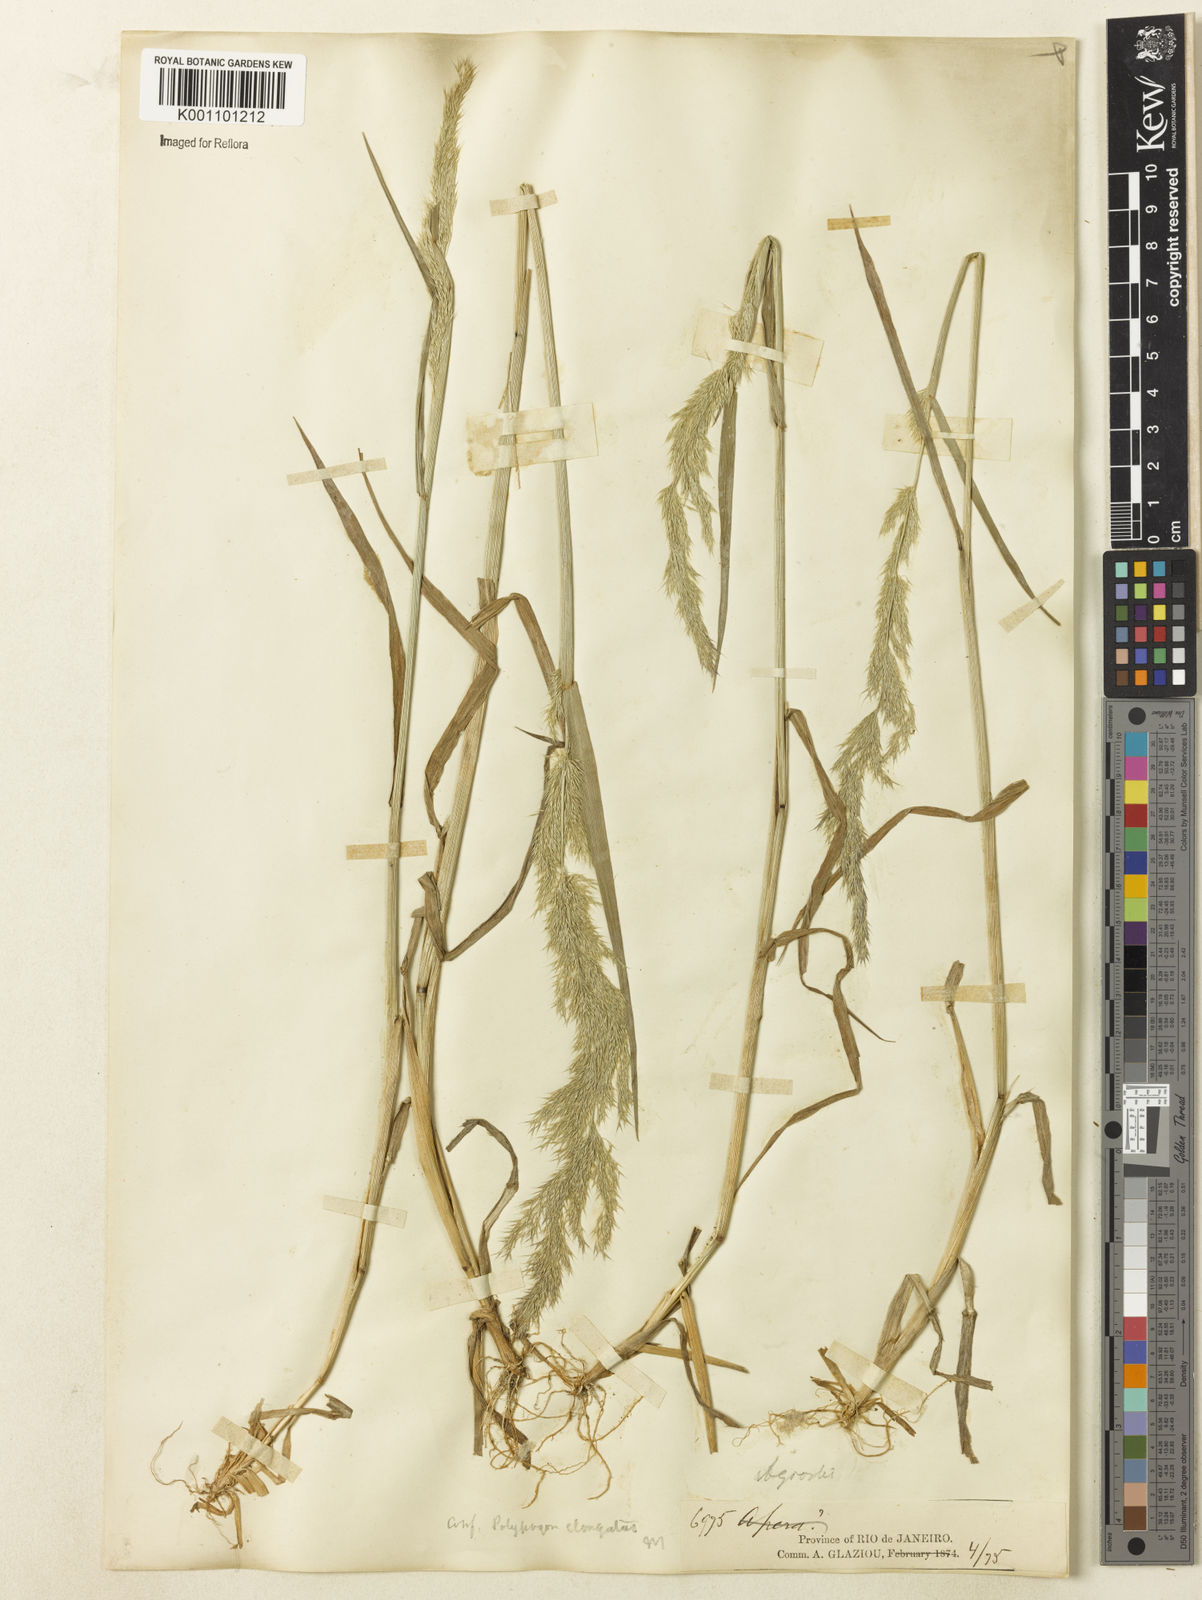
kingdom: Plantae
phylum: Tracheophyta
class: Liliopsida
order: Poales
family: Poaceae
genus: Polypogon
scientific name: Polypogon elongatus
